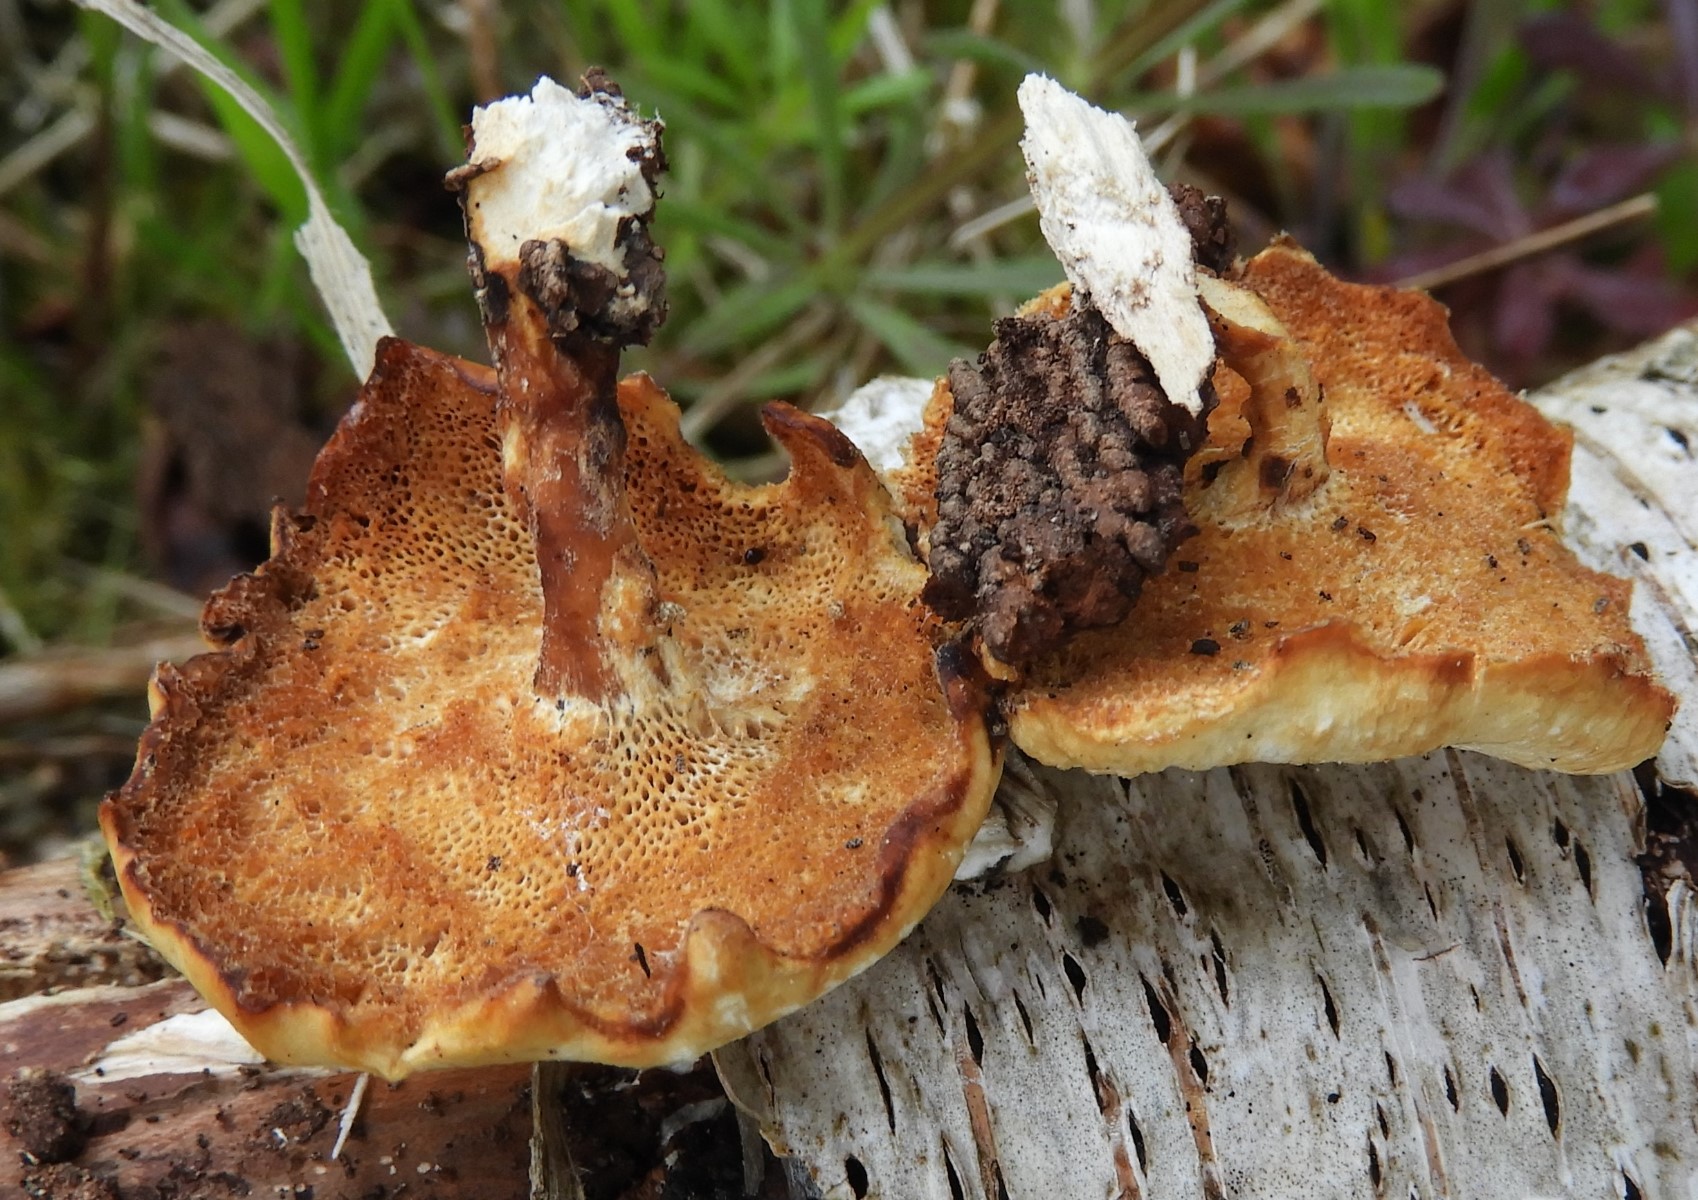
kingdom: Fungi
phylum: Basidiomycota
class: Agaricomycetes
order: Polyporales
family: Polyporaceae
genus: Lentinus
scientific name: Lentinus brumalis
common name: vinter-stilkporesvamp
